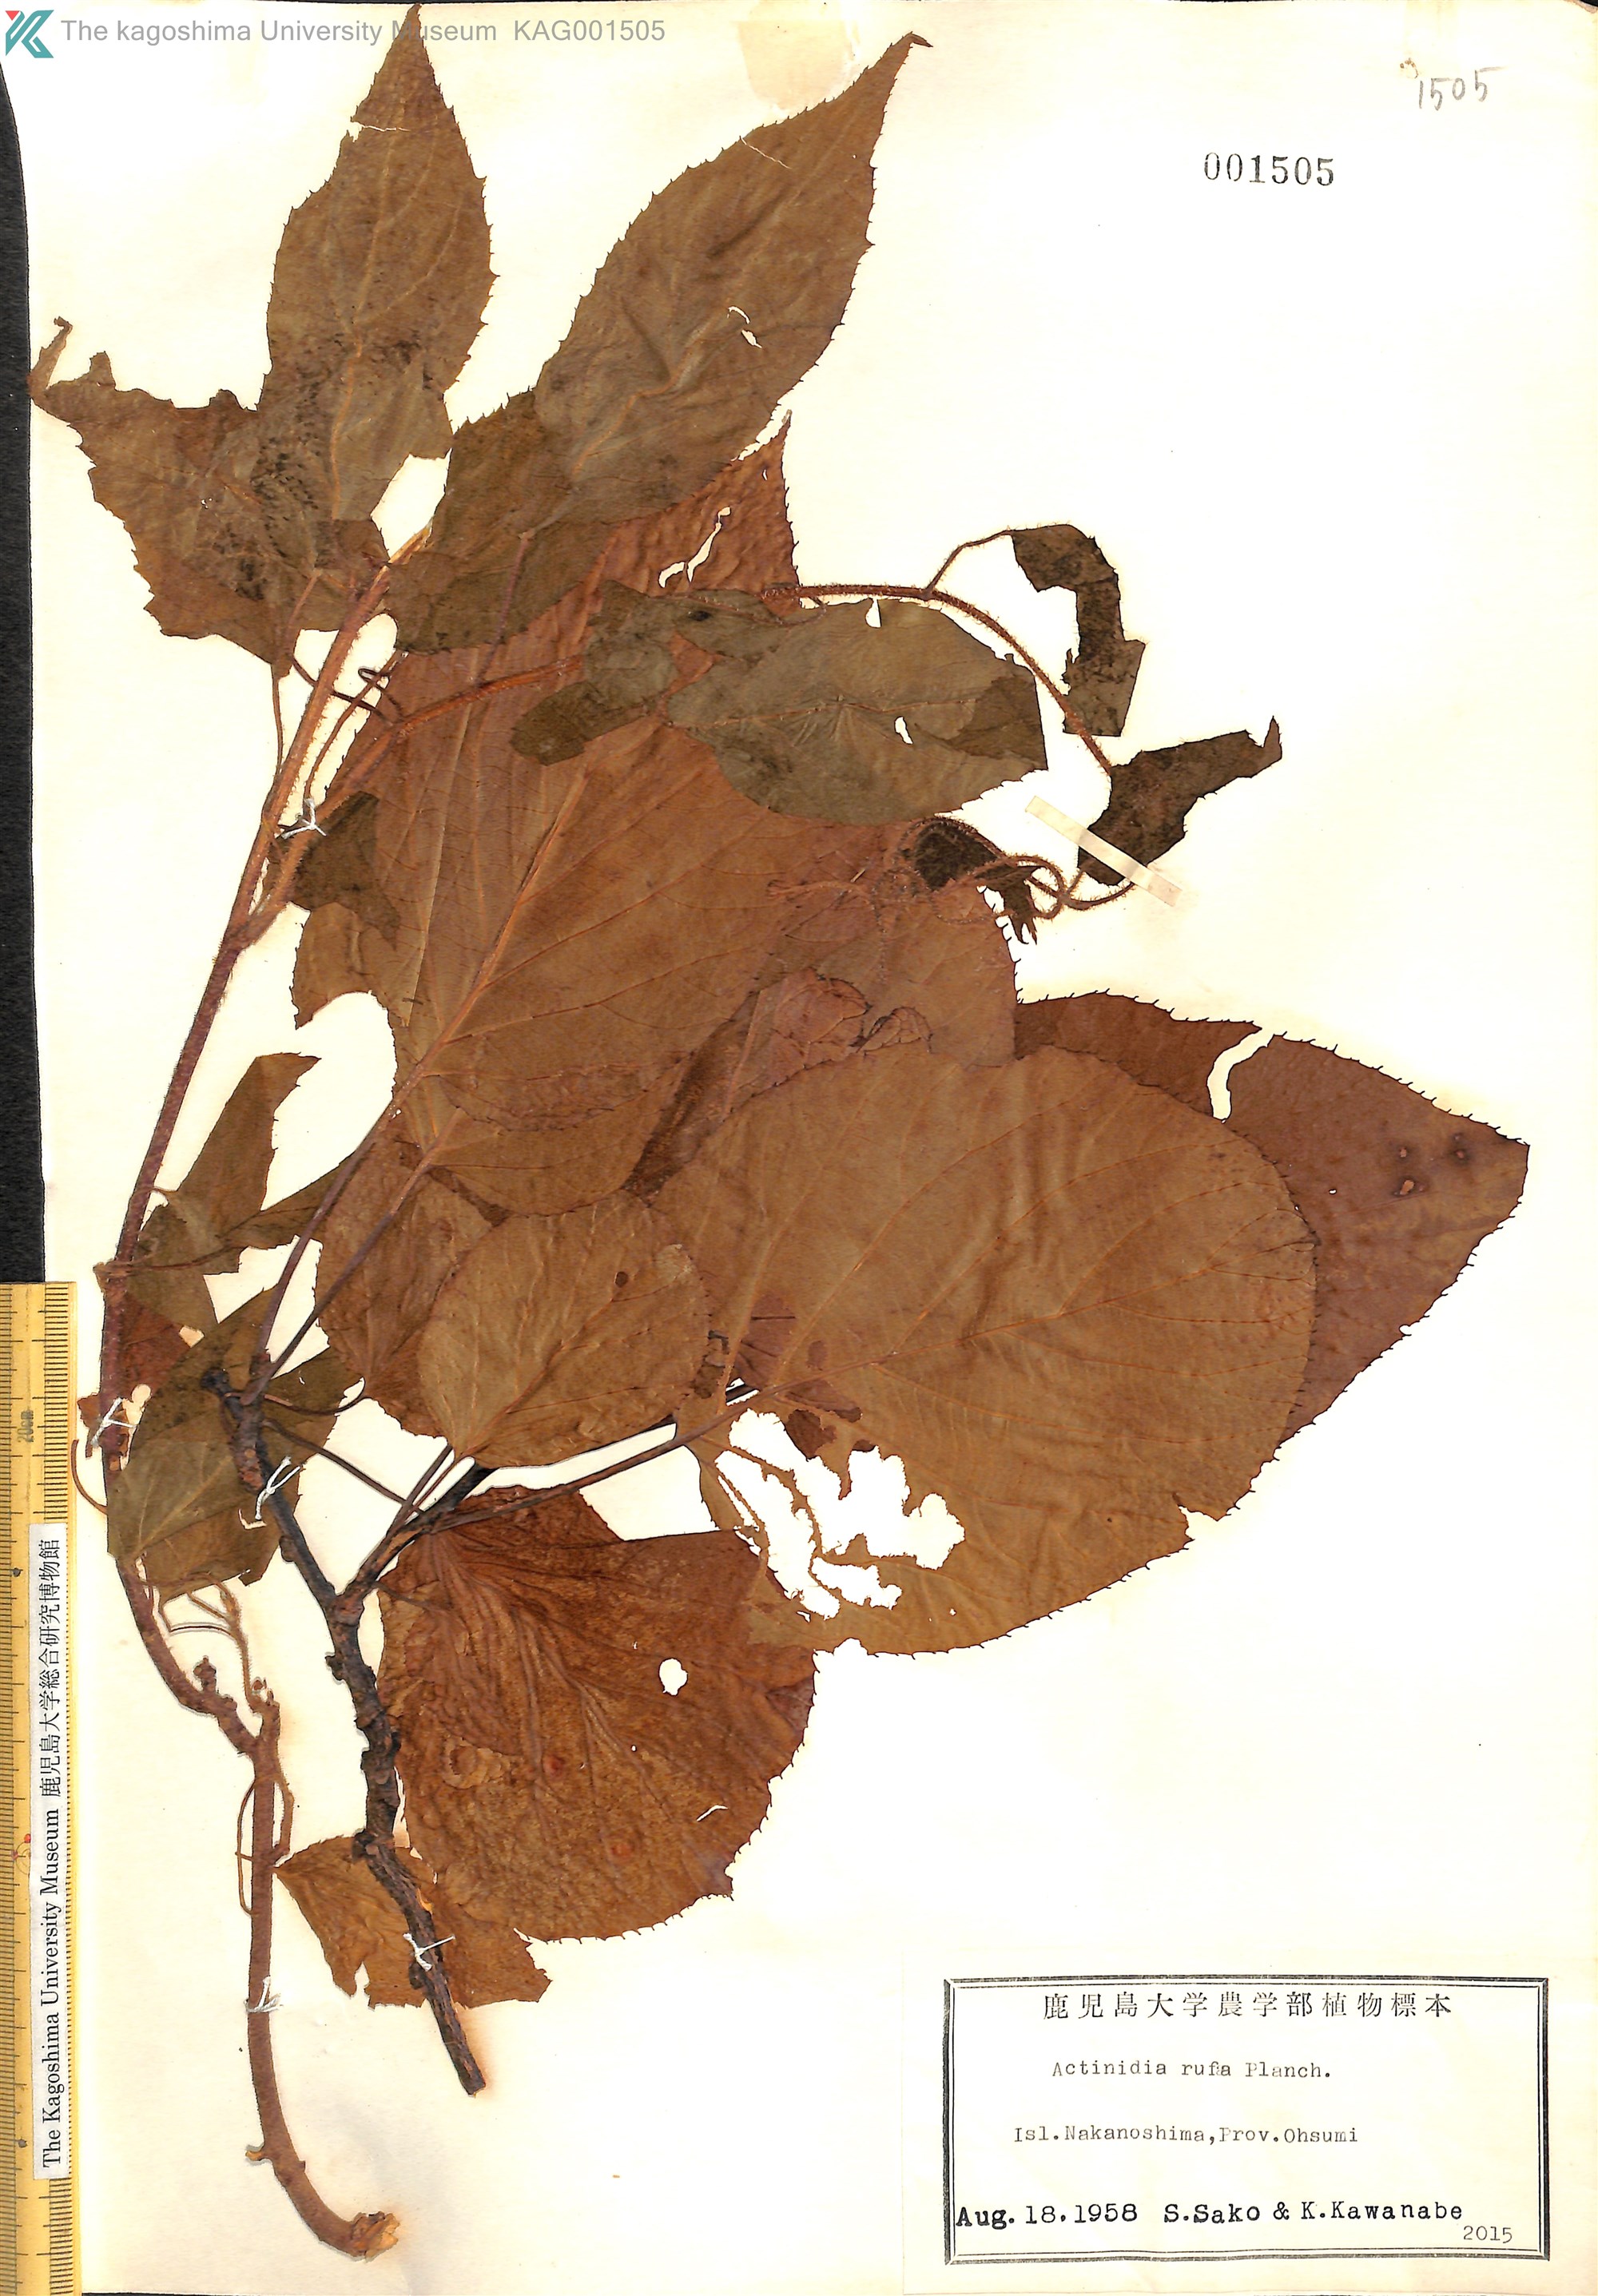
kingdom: Plantae
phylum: Tracheophyta
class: Magnoliopsida
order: Ericales
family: Actinidiaceae
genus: Actinidia
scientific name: Actinidia rufa
